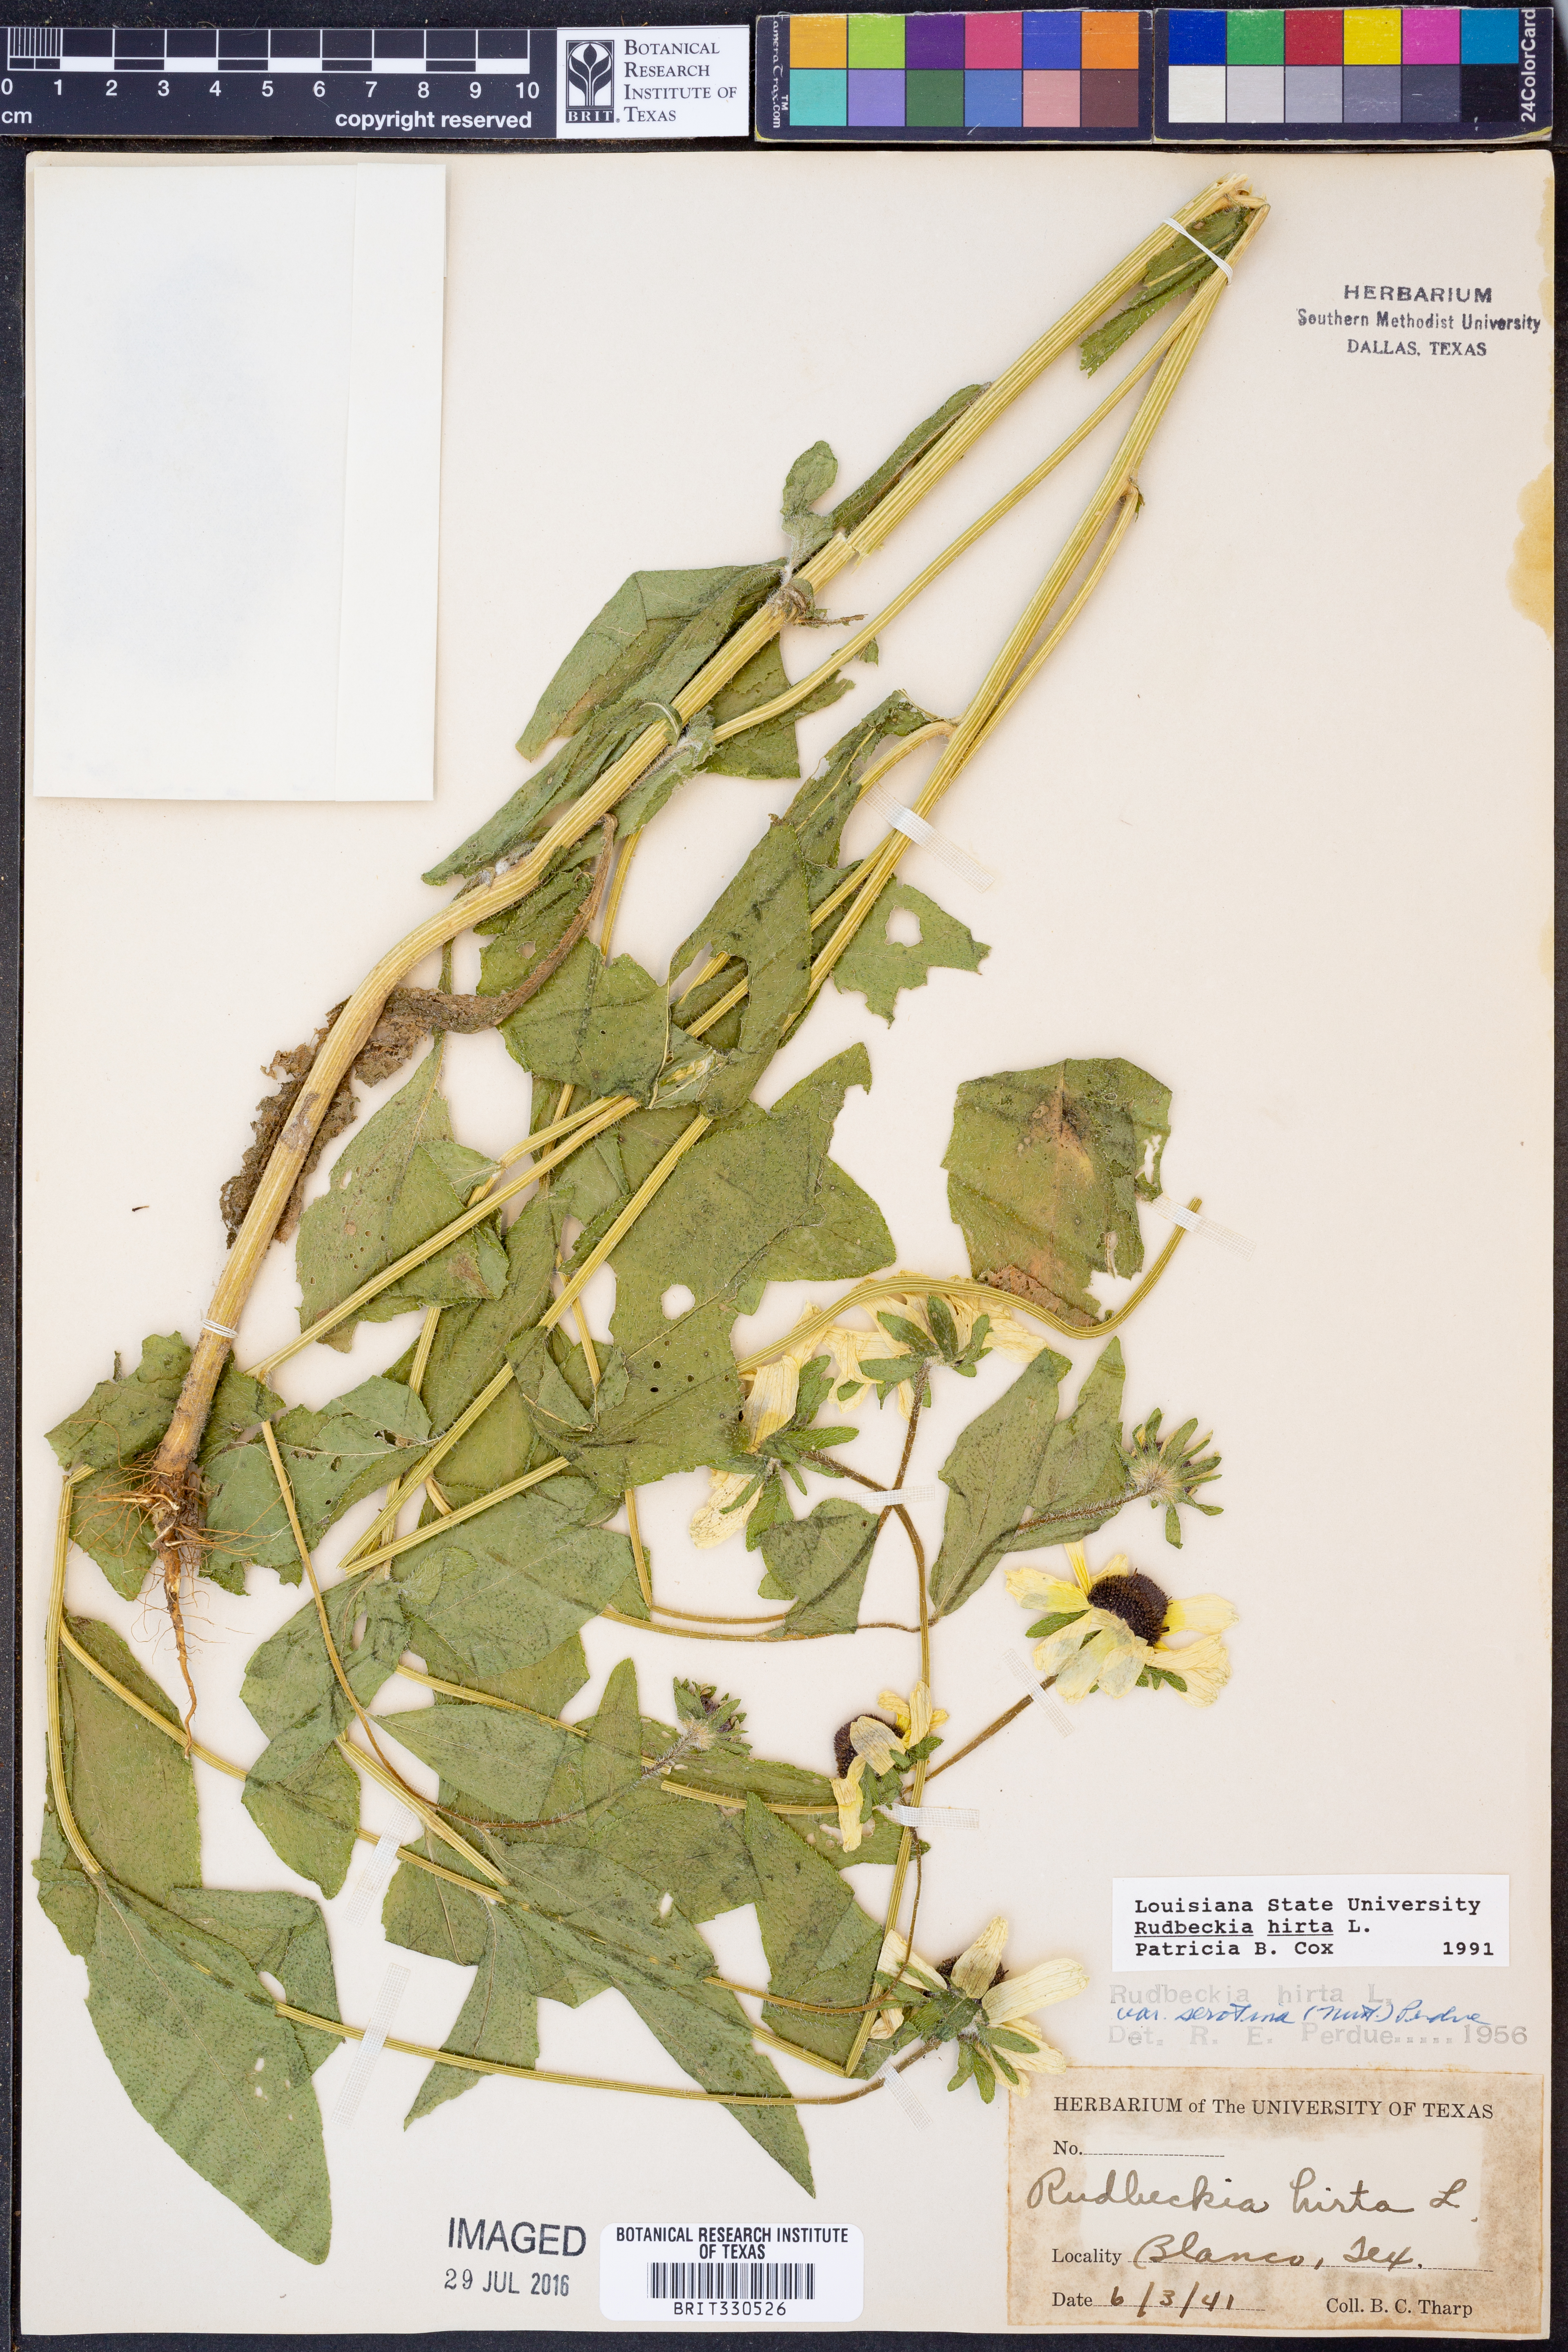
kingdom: Plantae
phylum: Tracheophyta
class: Magnoliopsida
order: Asterales
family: Asteraceae
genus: Rudbeckia
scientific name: Rudbeckia hirta
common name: Black-eyed-susan
